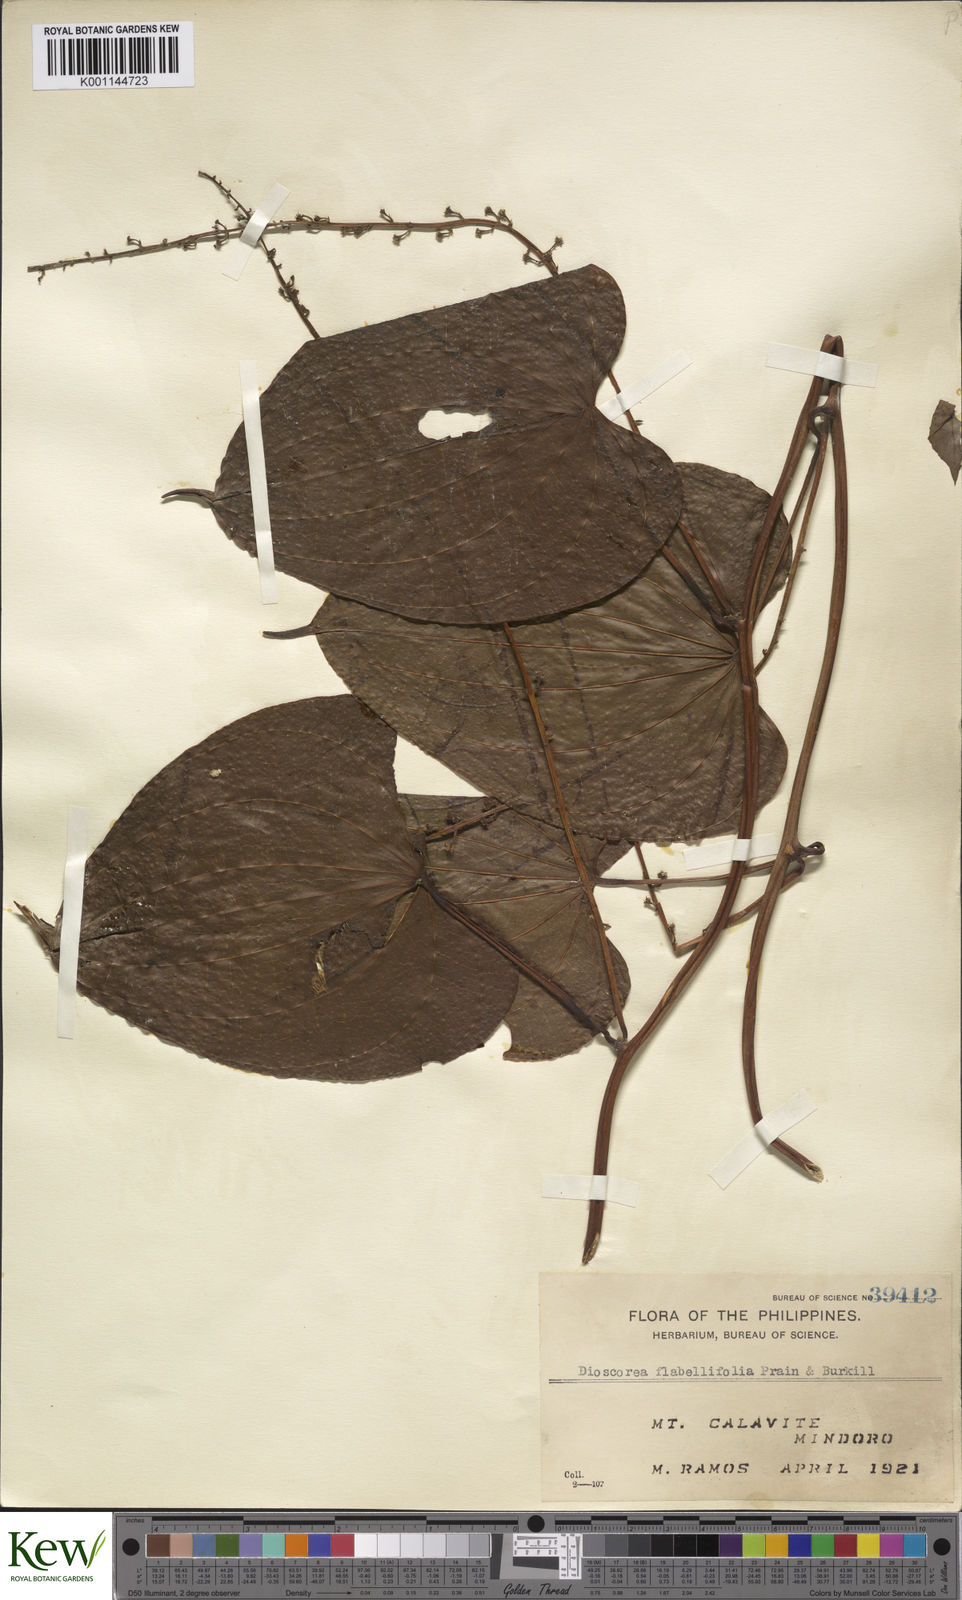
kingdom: Plantae
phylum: Tracheophyta
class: Liliopsida
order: Dioscoreales
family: Dioscoreaceae
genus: Dioscorea
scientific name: Dioscorea flabellifolia
